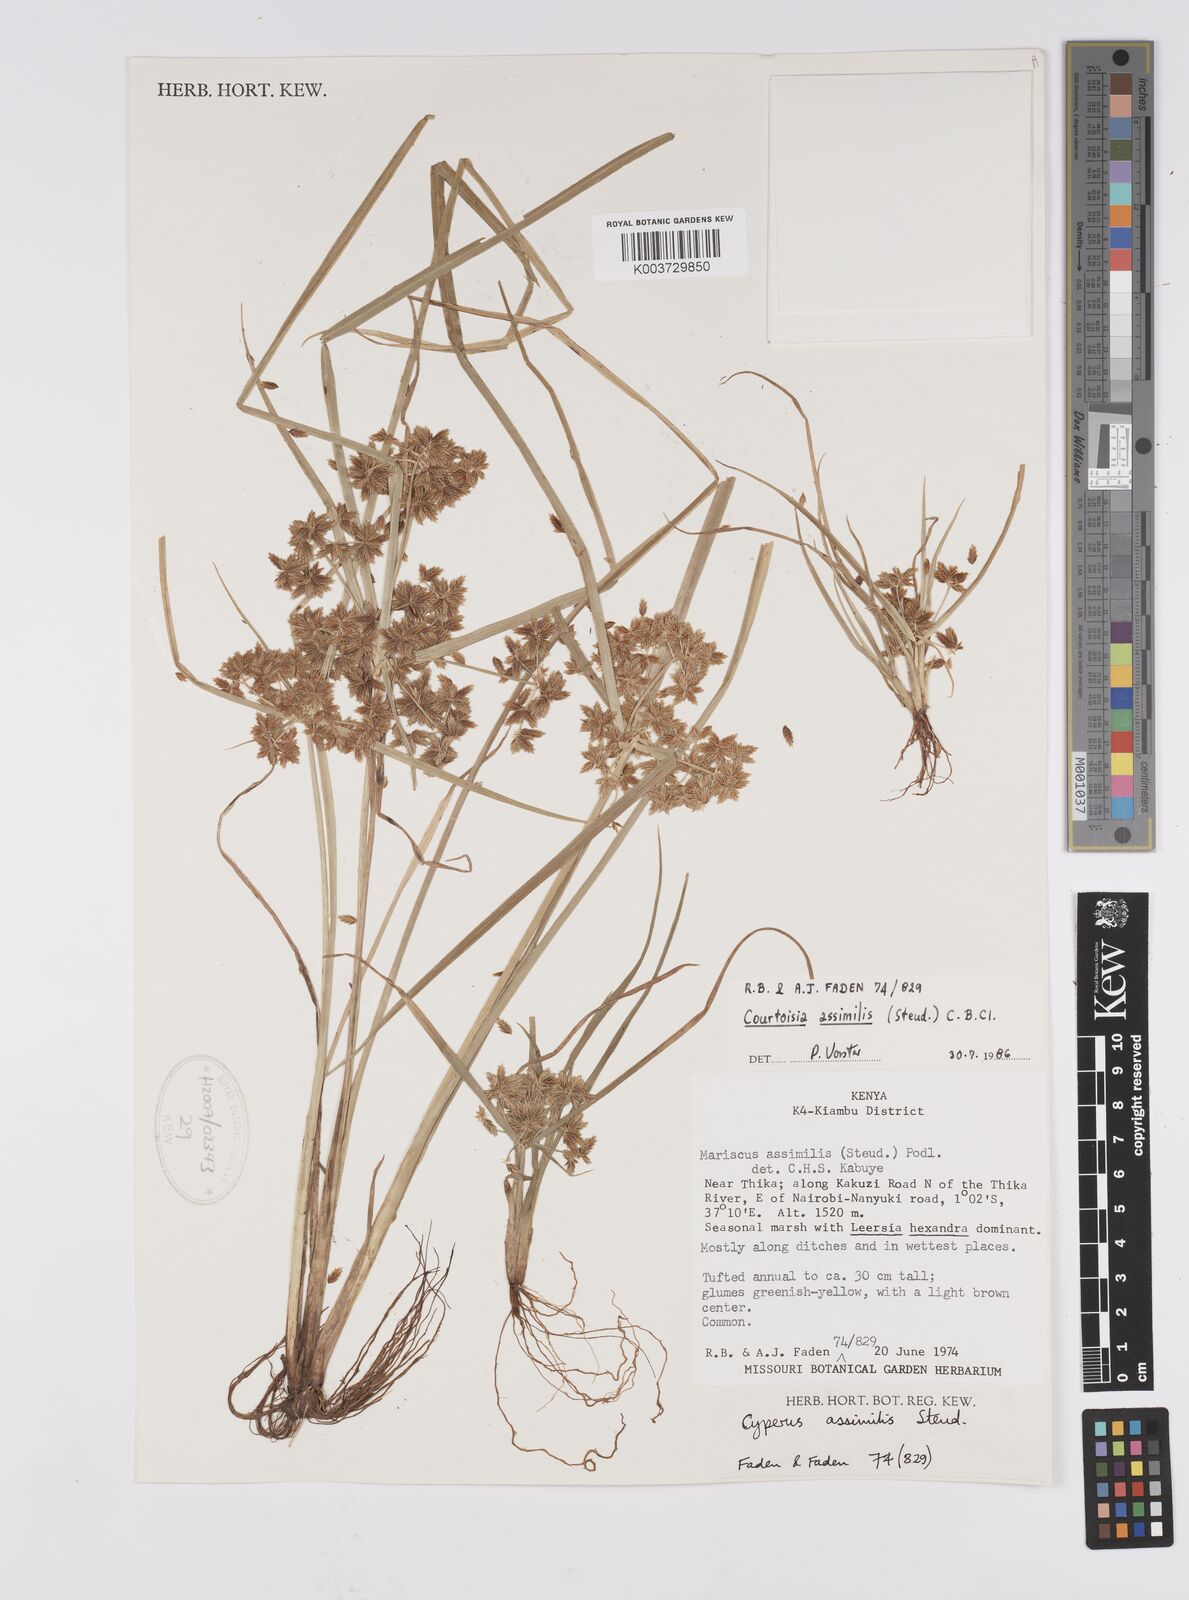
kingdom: Plantae
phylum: Tracheophyta
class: Liliopsida
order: Poales
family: Cyperaceae
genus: Cyperus
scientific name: Cyperus assimilis
